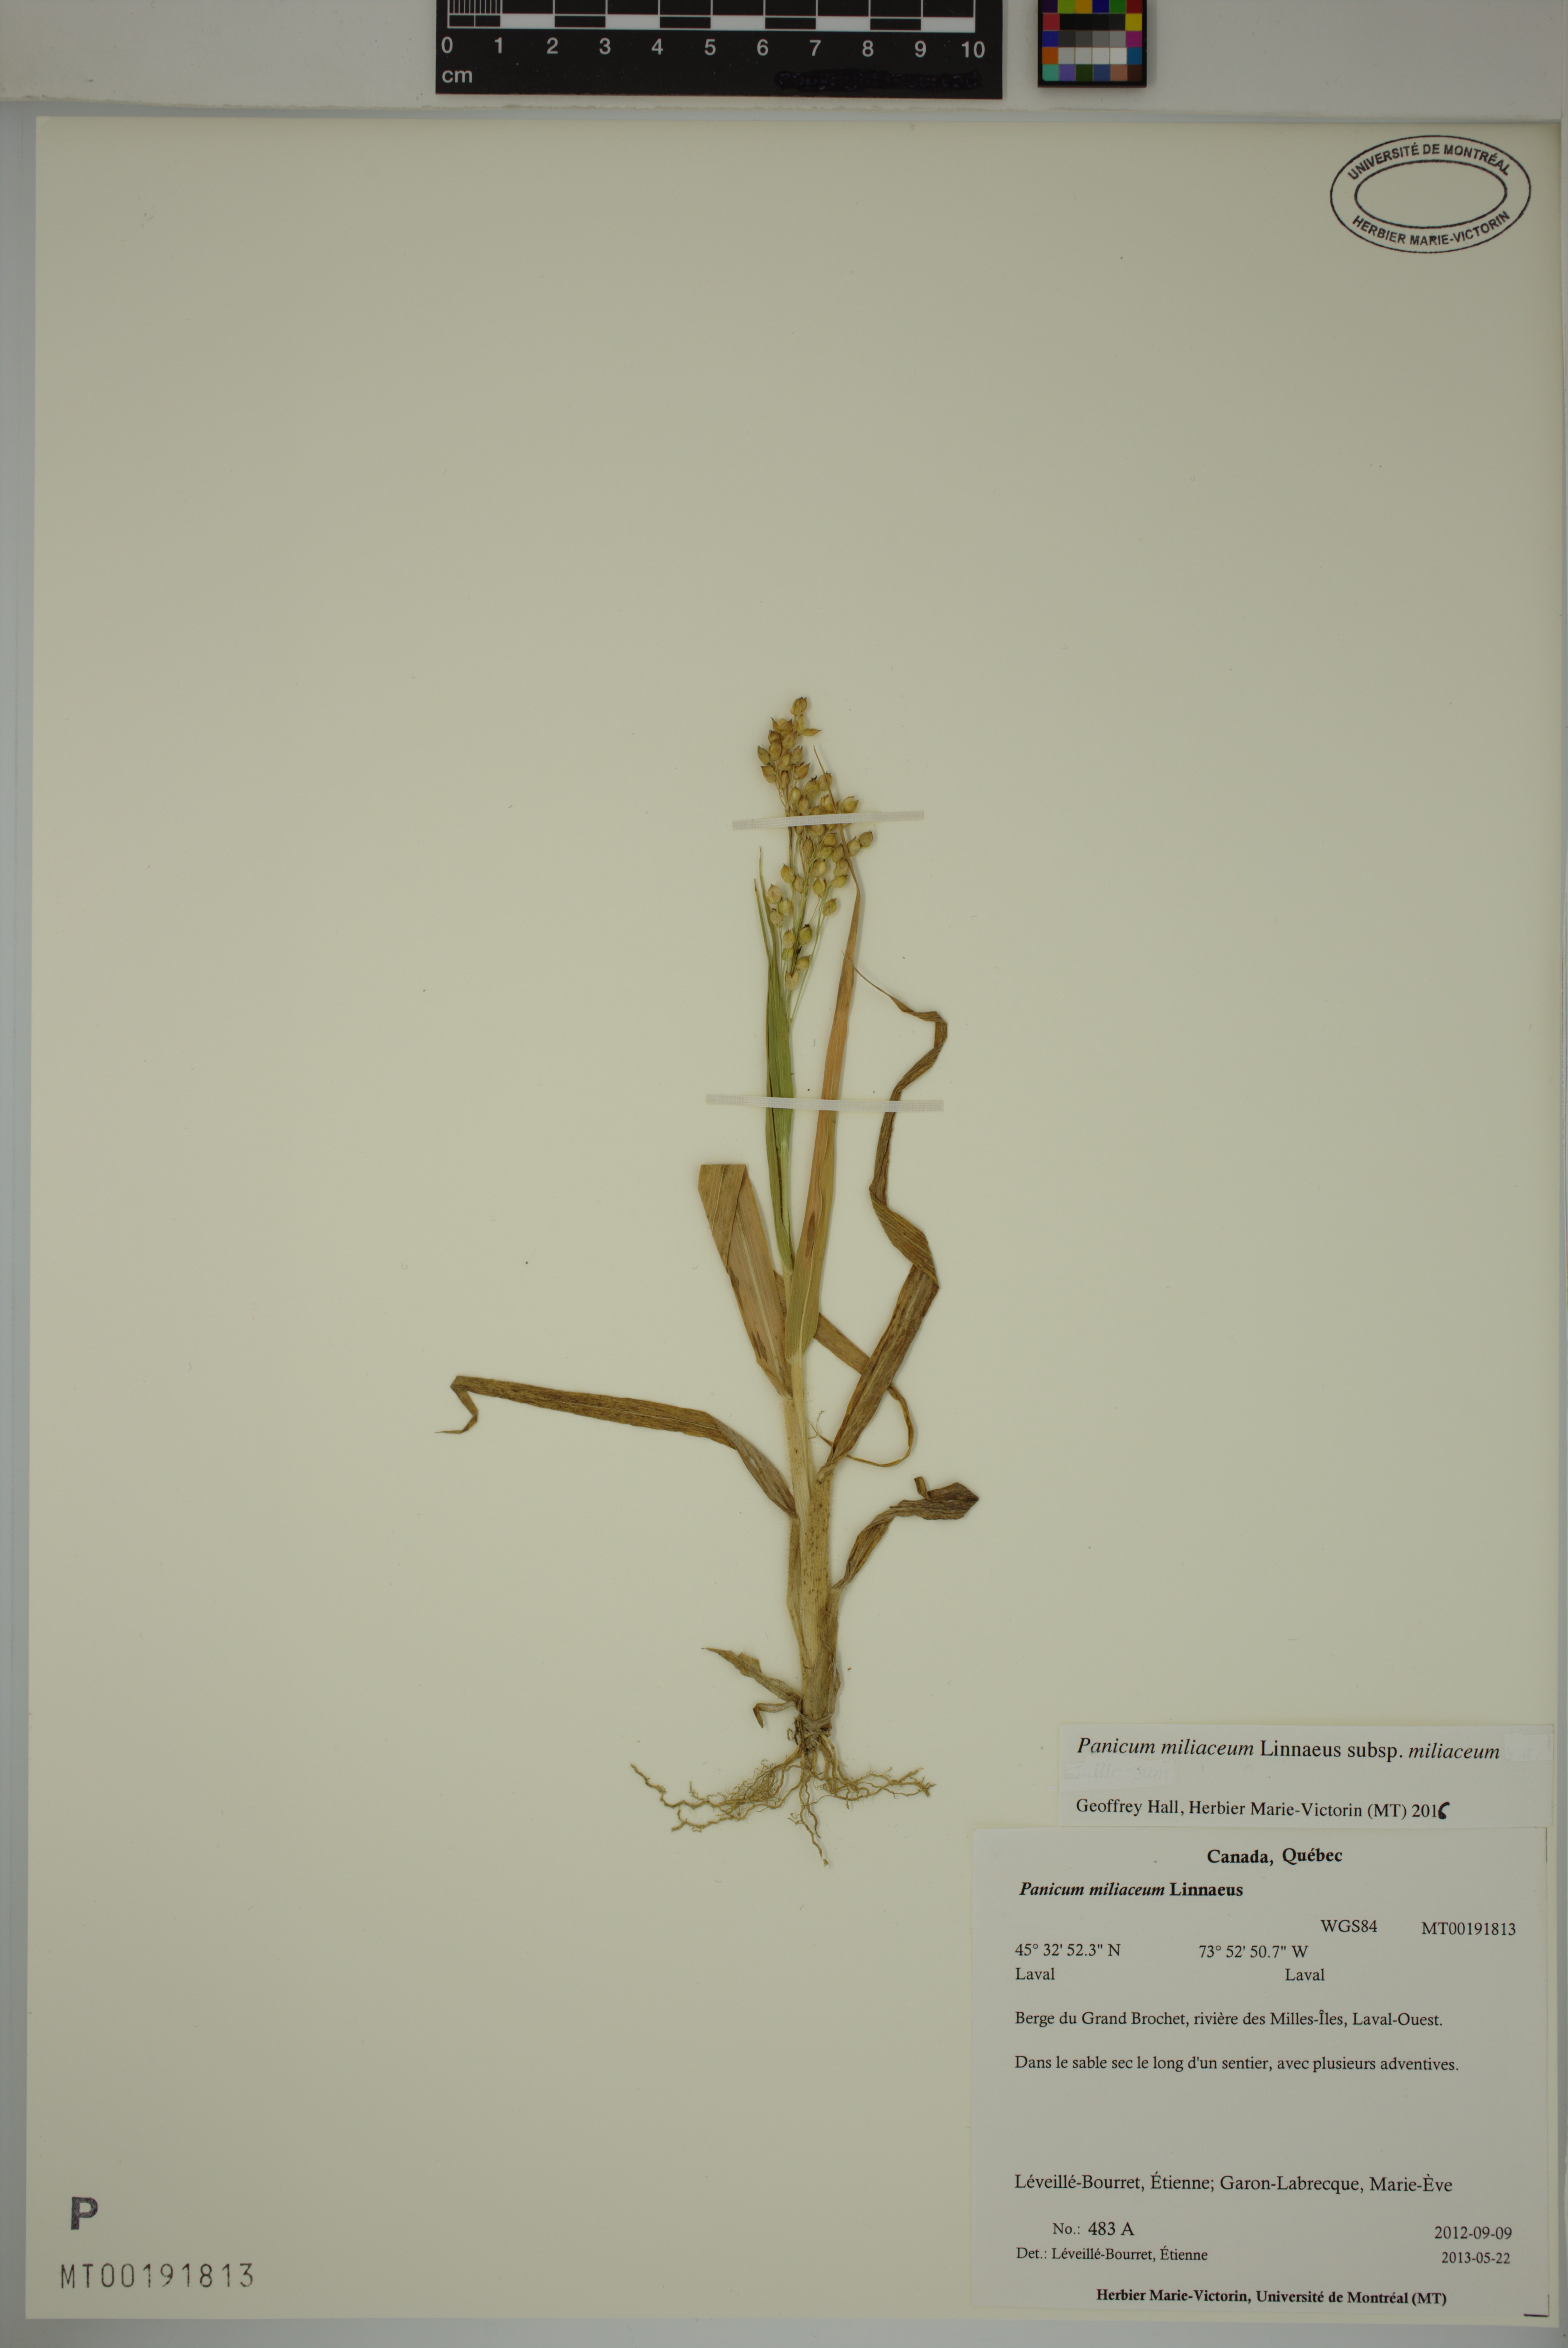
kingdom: Plantae
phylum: Tracheophyta
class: Liliopsida
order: Poales
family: Poaceae
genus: Panicum
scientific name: Panicum miliaceum
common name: Common millet
